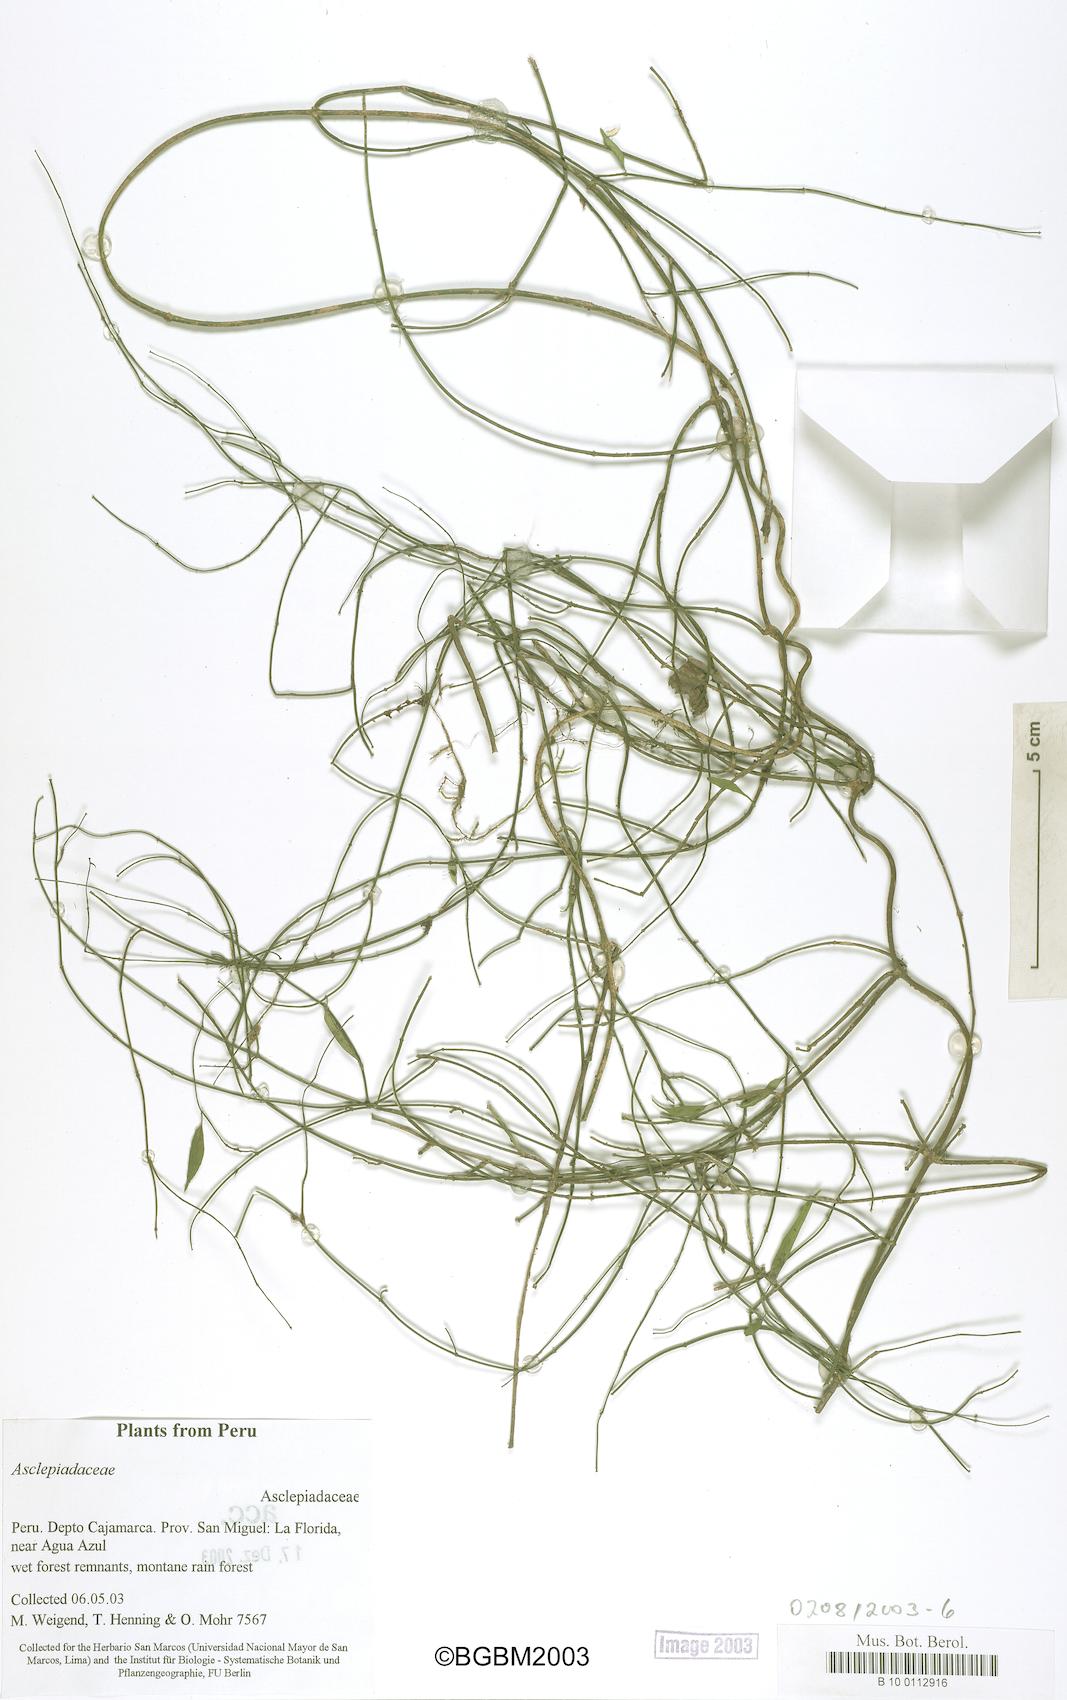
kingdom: Plantae
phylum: Tracheophyta
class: Magnoliopsida
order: Gentianales
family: Apocynaceae
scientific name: Apocynaceae
